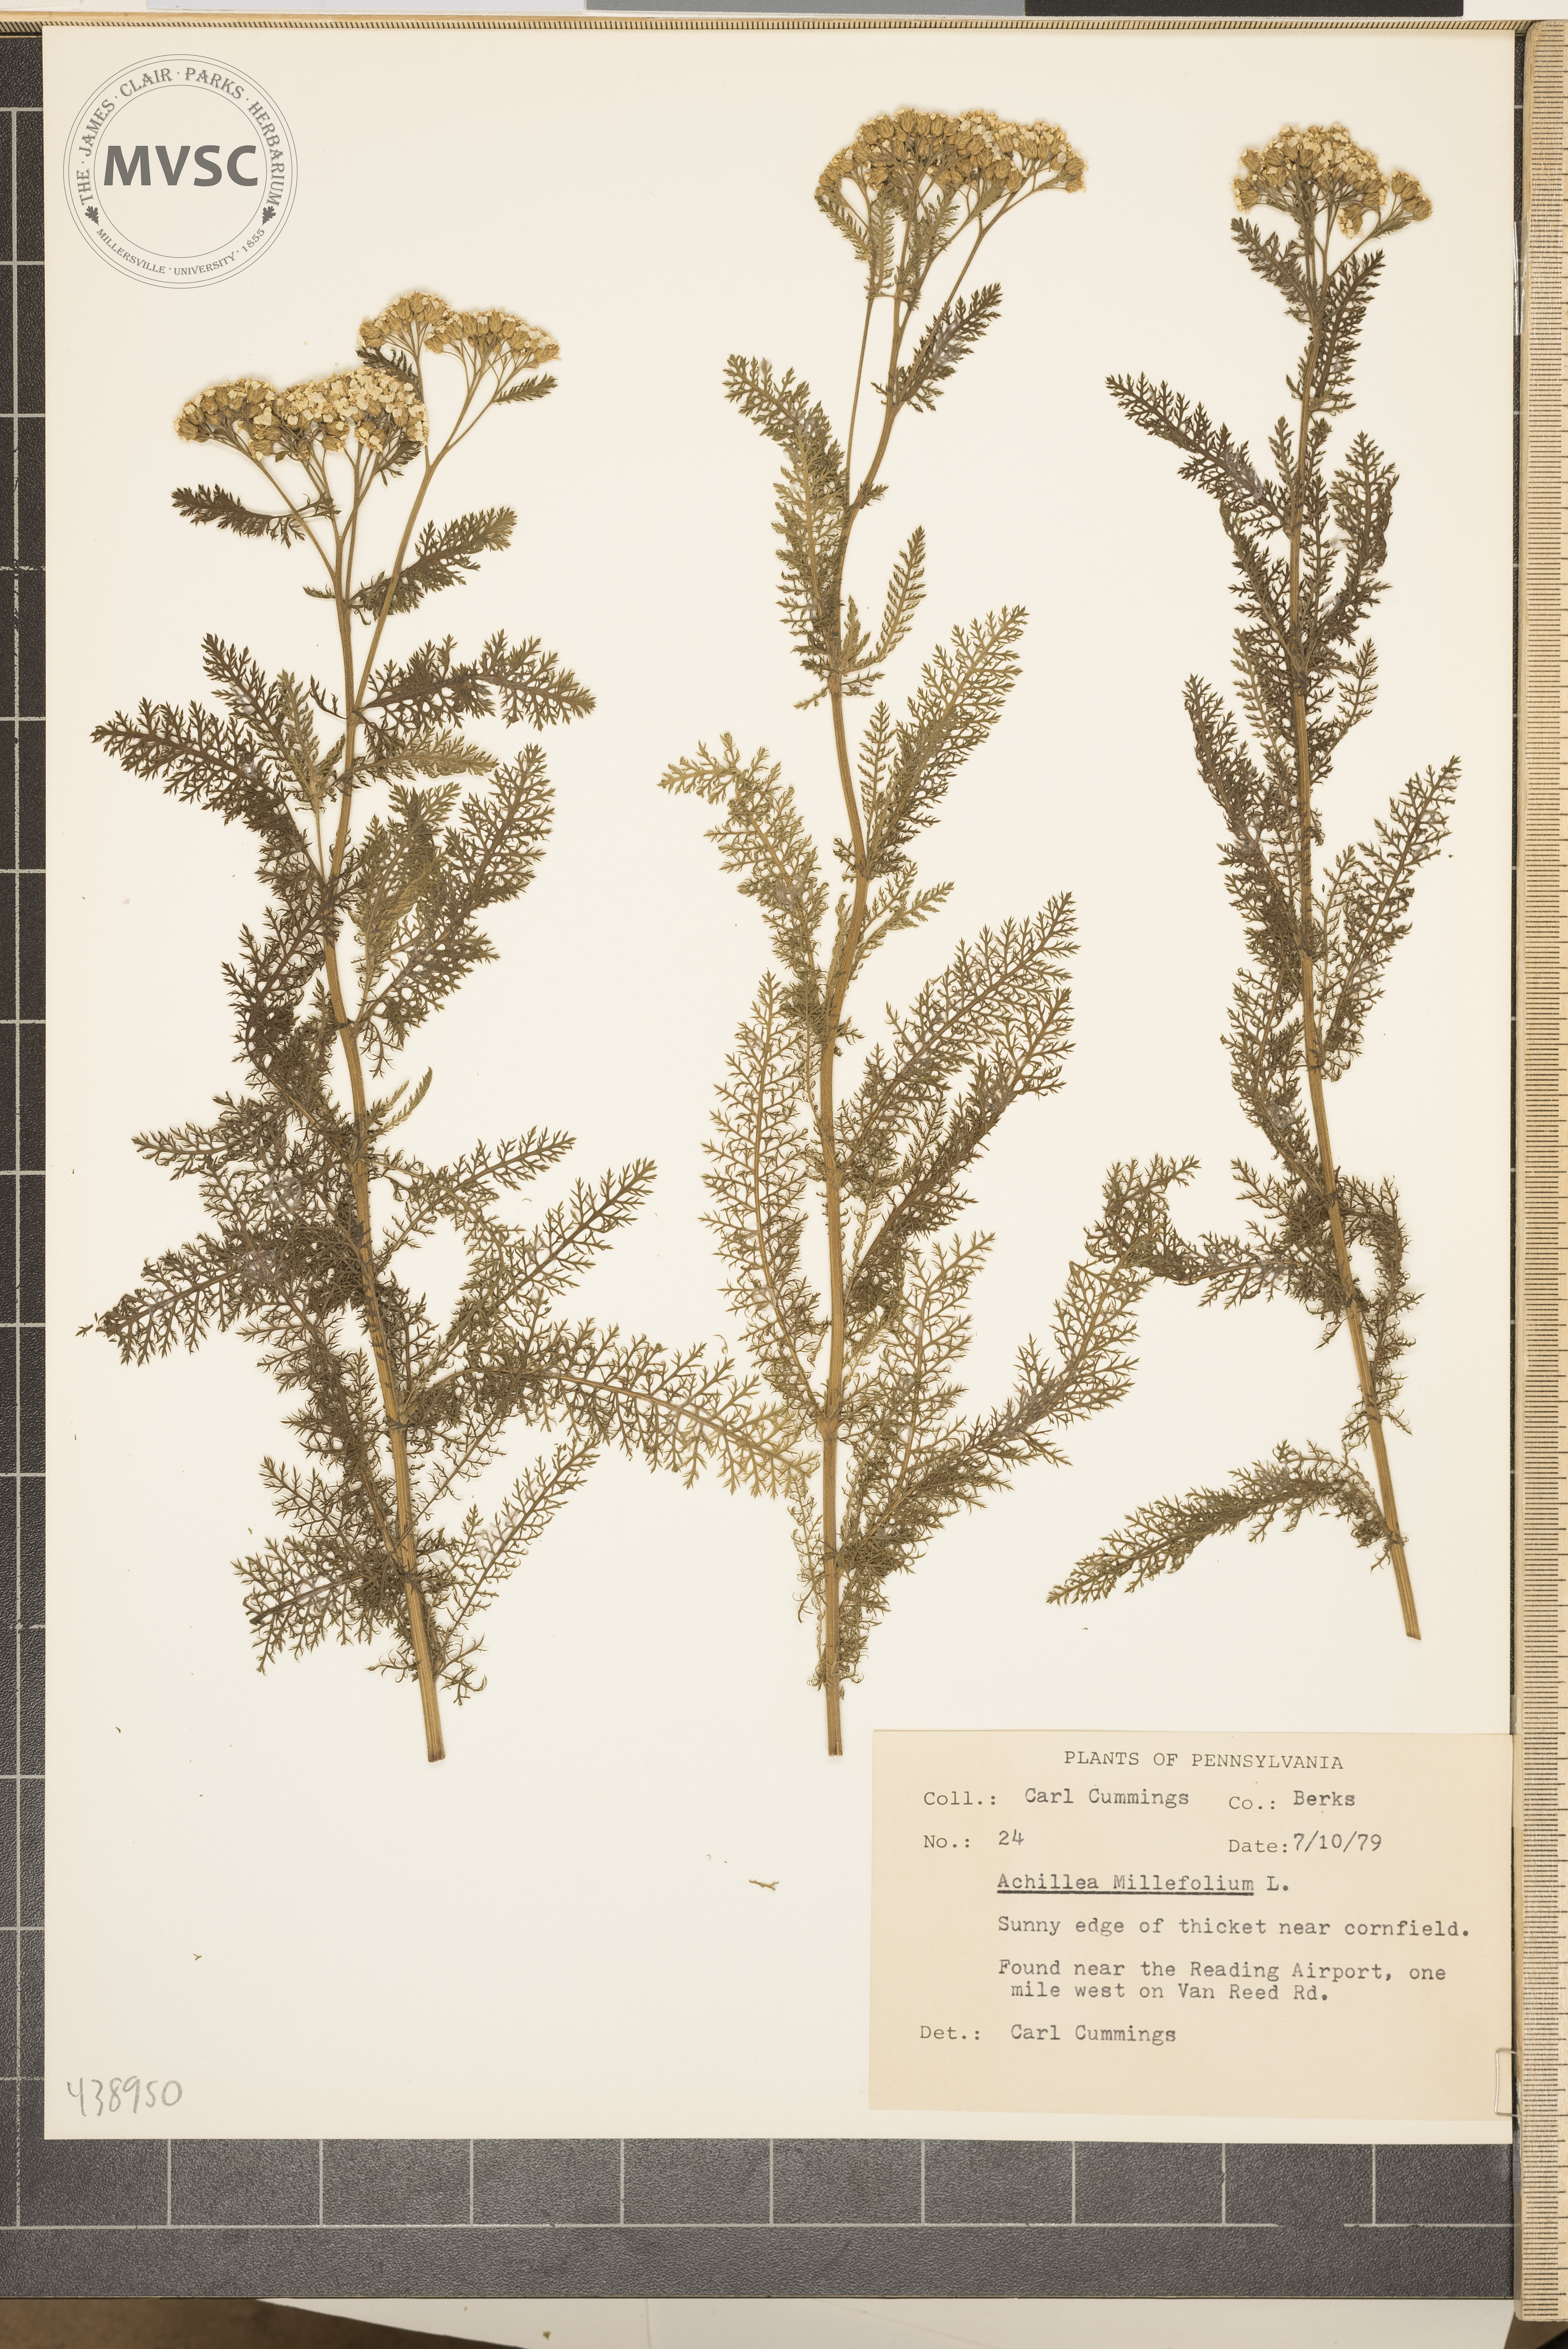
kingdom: Plantae
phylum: Tracheophyta
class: Magnoliopsida
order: Asterales
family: Asteraceae
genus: Achillea
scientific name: Achillea millefolium
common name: Yarrow
